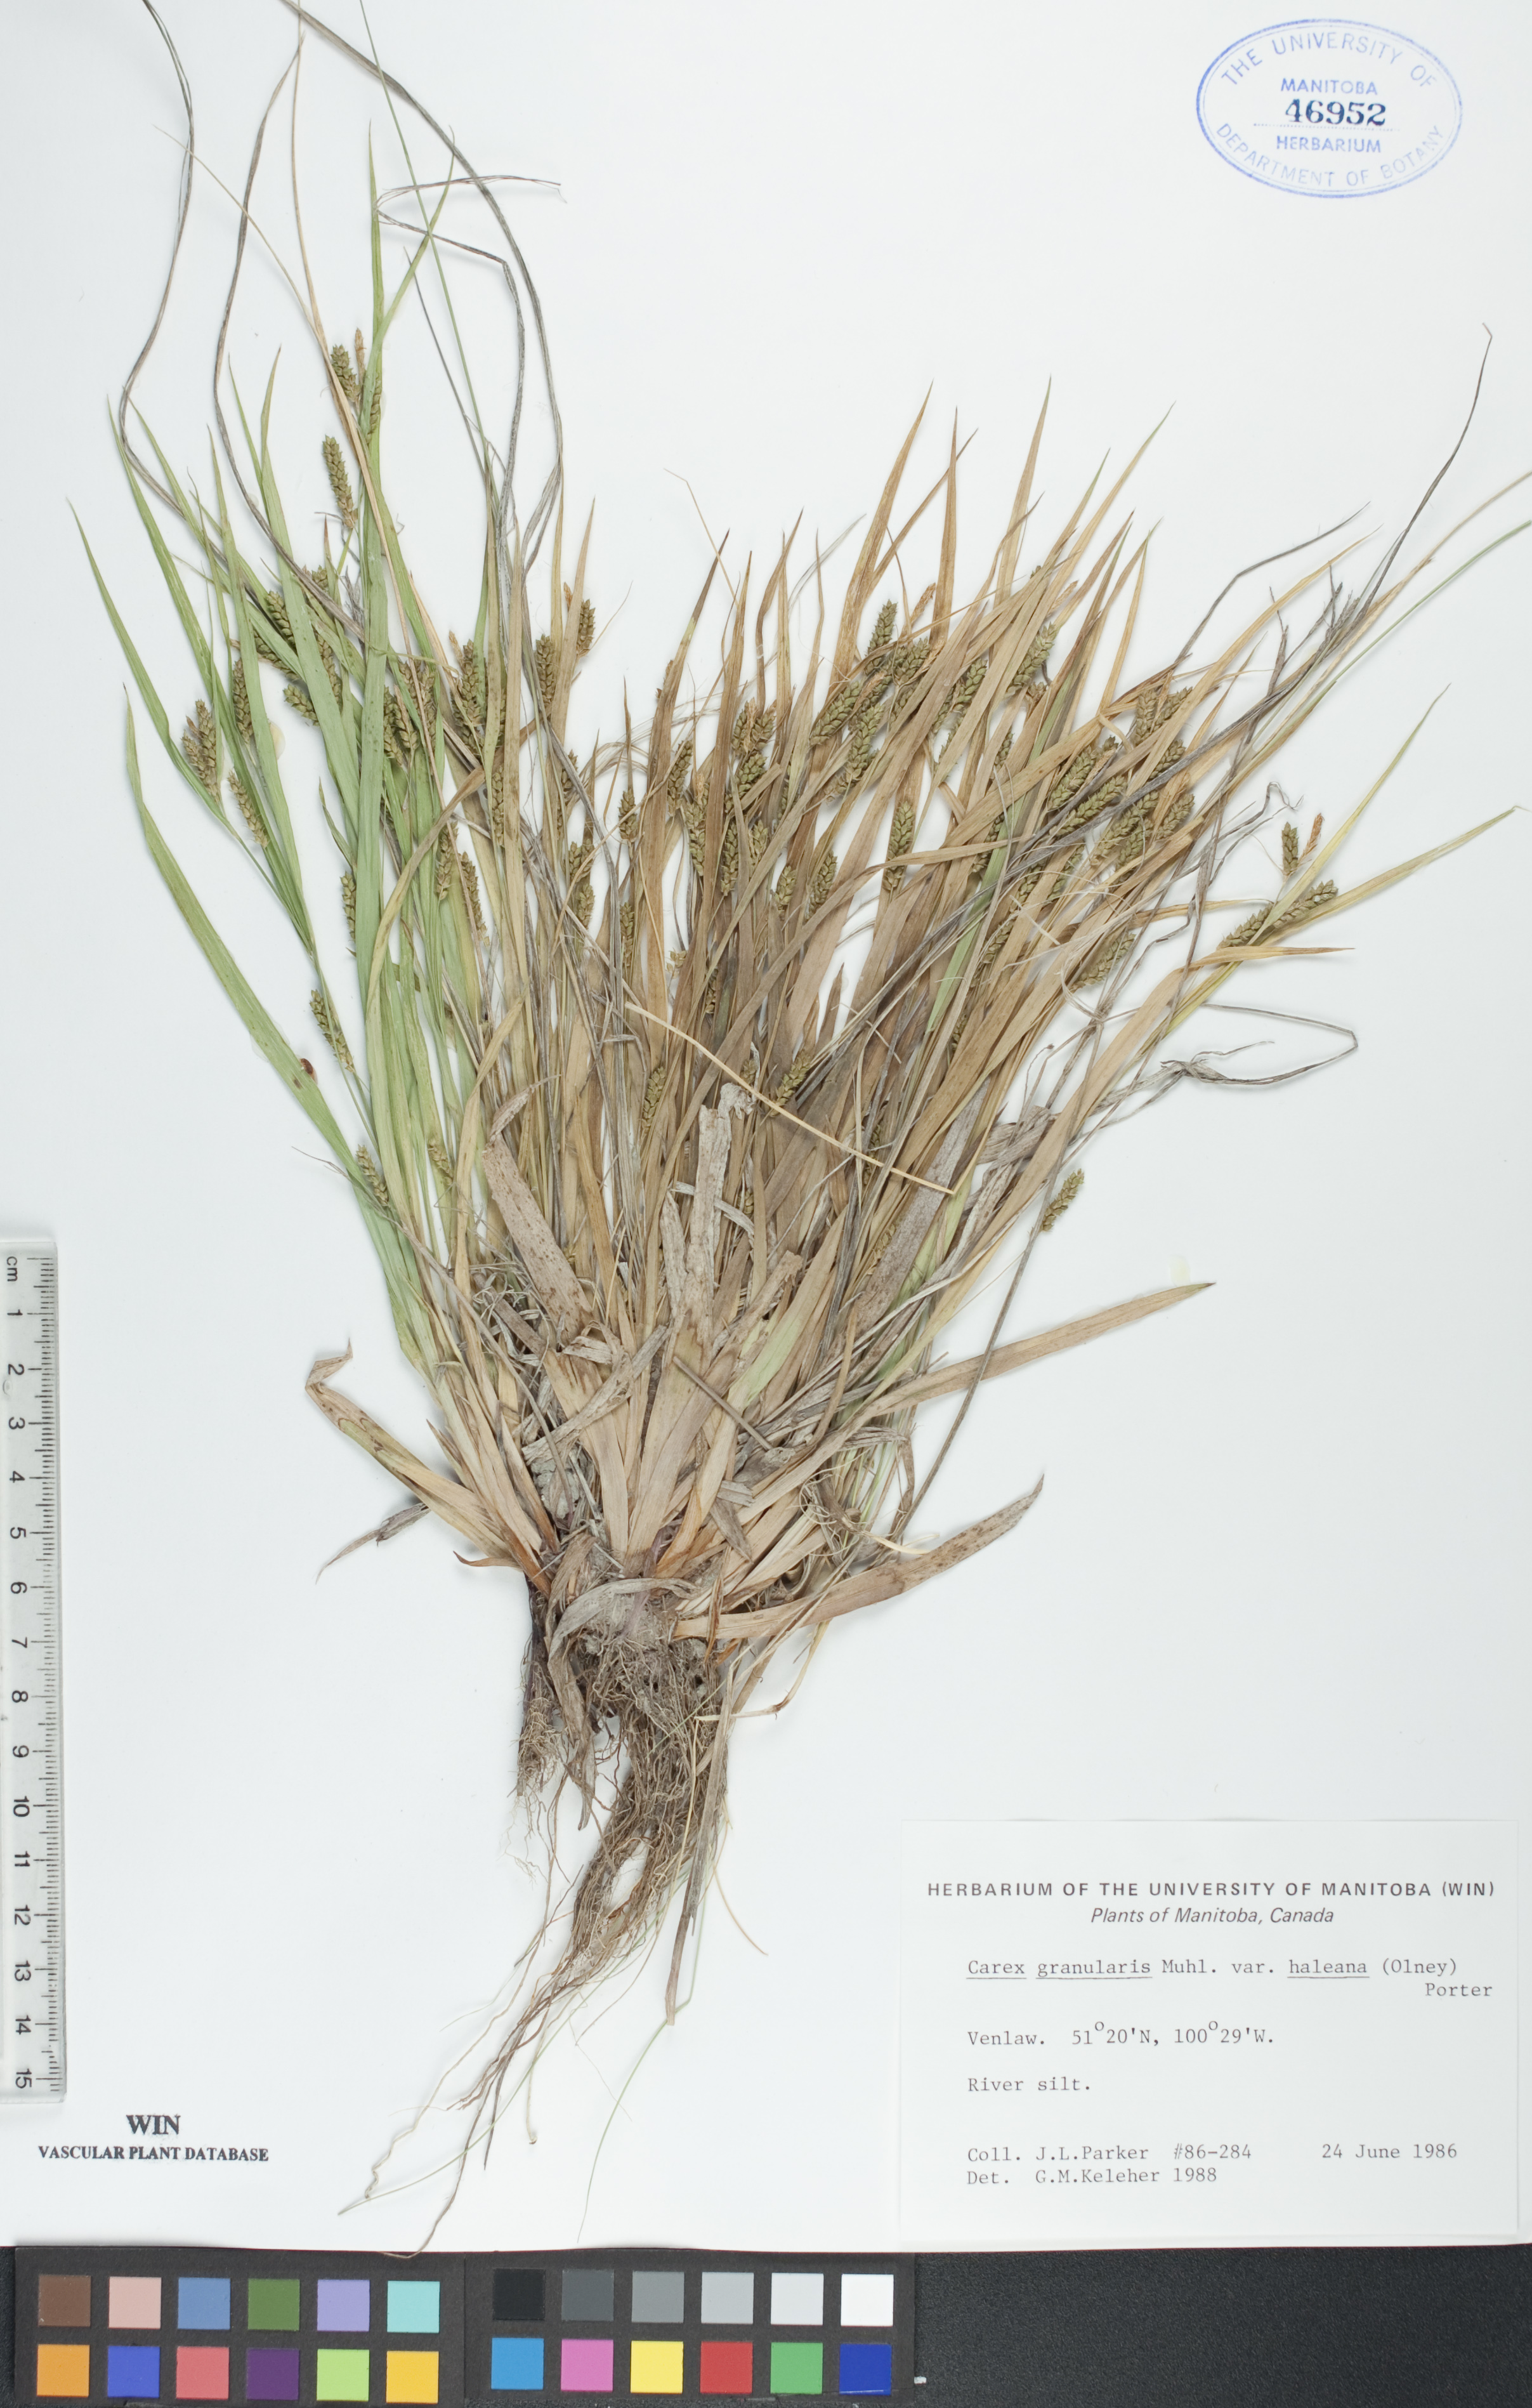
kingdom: Plantae
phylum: Tracheophyta
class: Liliopsida
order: Poales
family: Cyperaceae
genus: Carex
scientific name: Carex granularis
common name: Granular sedge
